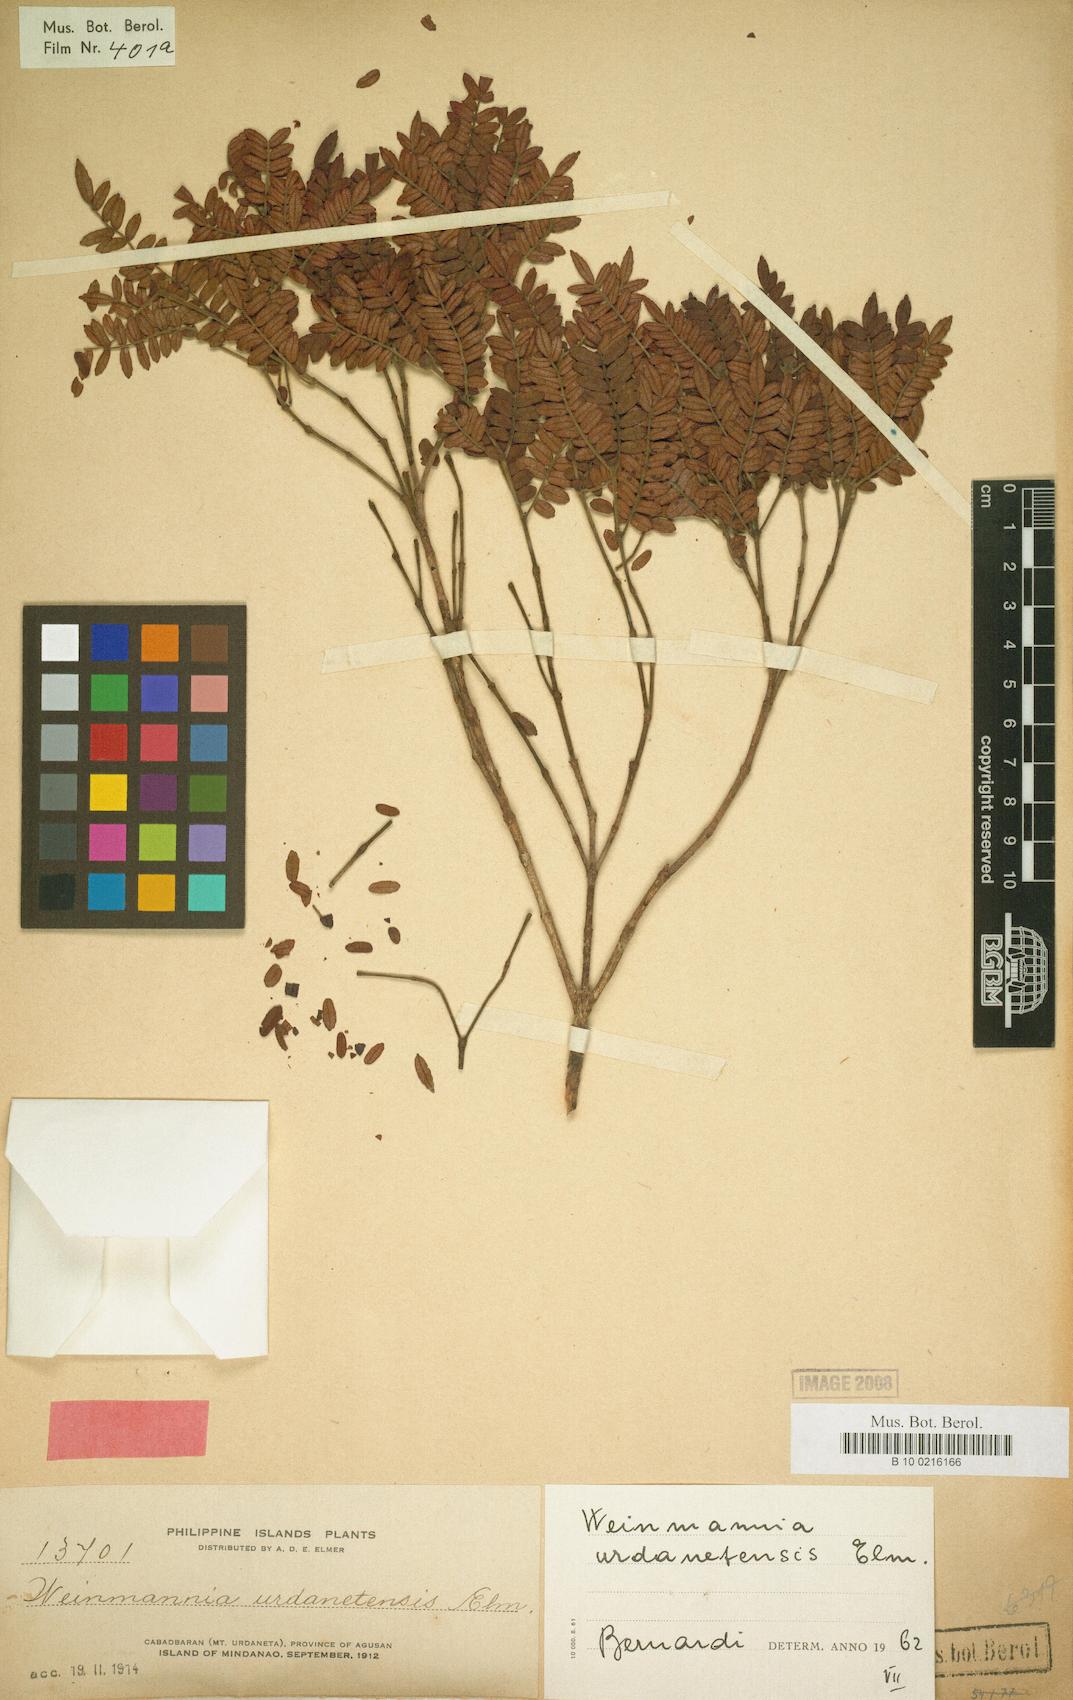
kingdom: Plantae
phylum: Tracheophyta
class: Magnoliopsida
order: Oxalidales
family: Cunoniaceae
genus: Pterophylla
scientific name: Pterophylla urdanetensis
